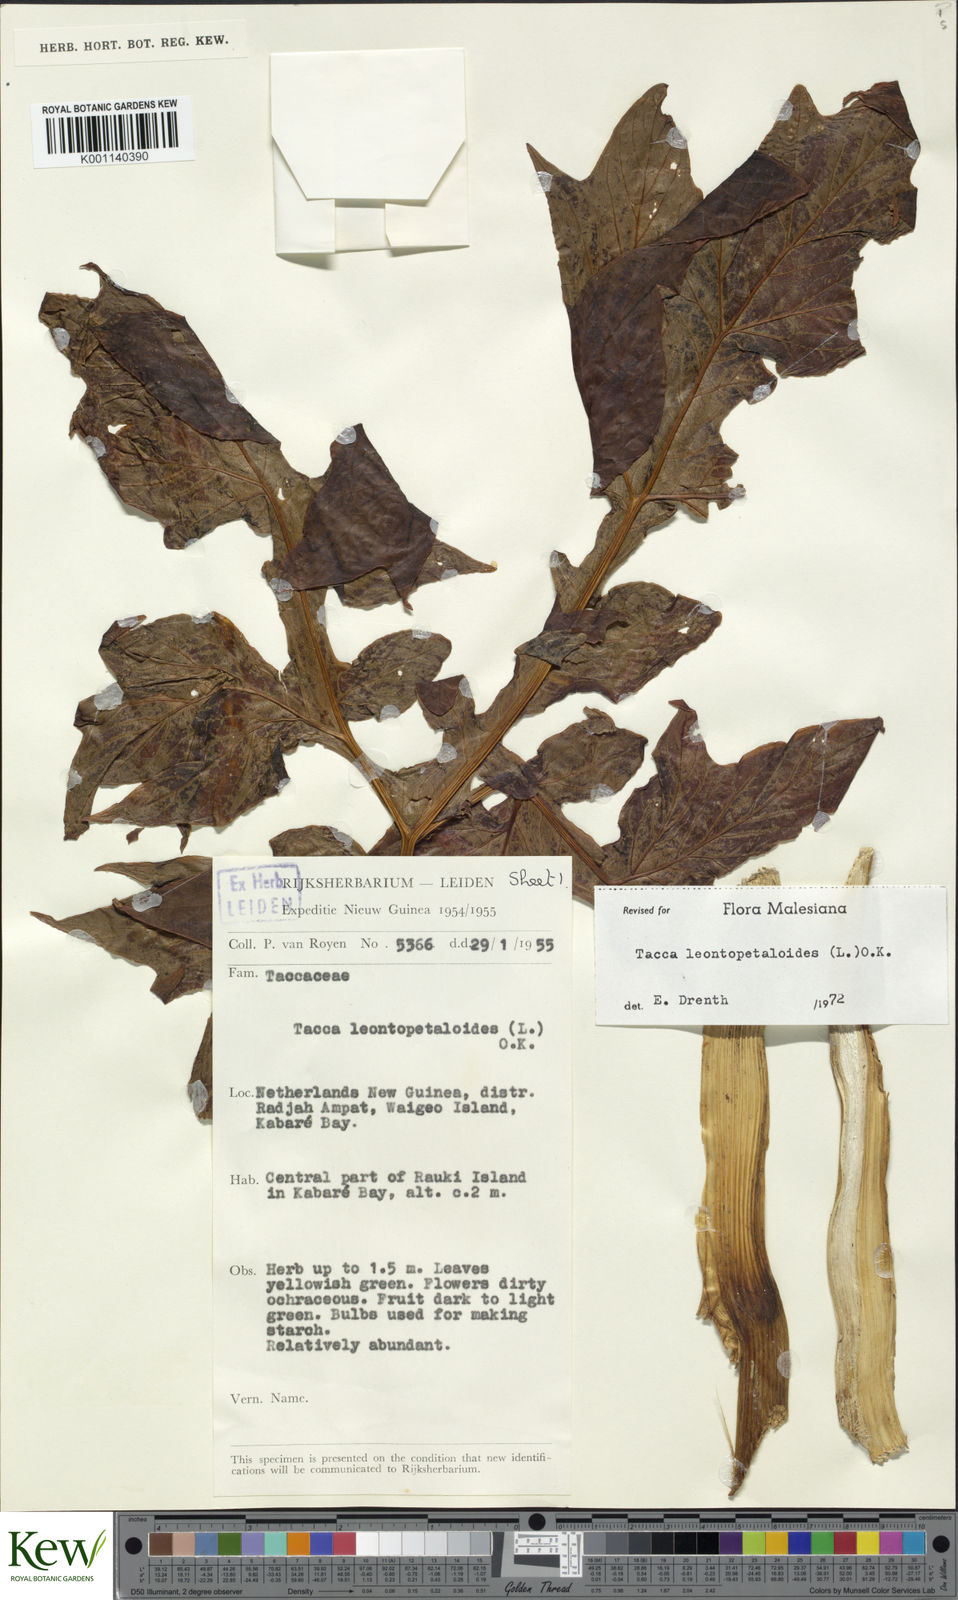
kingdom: Plantae
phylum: Tracheophyta
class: Liliopsida
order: Dioscoreales
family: Dioscoreaceae
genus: Tacca
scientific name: Tacca leontopetaloides
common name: Arrowroot
